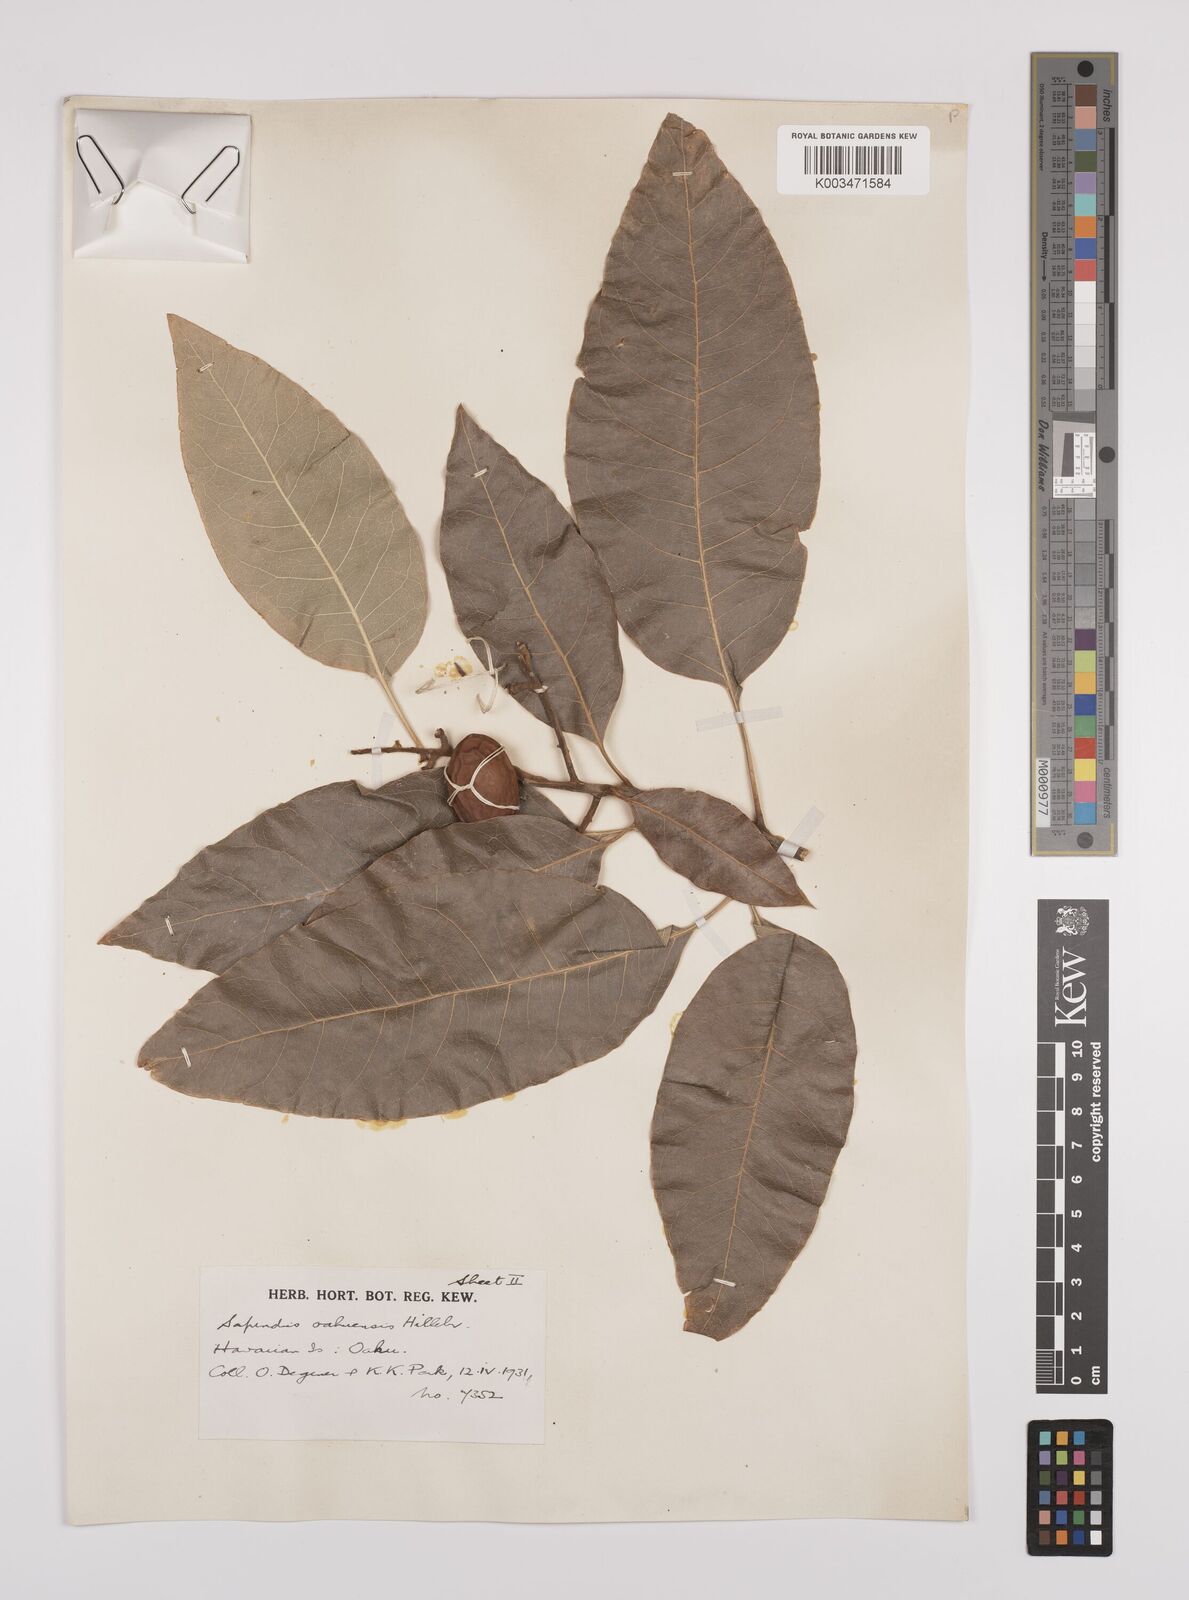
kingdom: Plantae
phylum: Tracheophyta
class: Magnoliopsida
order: Sapindales
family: Sapindaceae
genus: Sapindus
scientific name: Sapindus oahuensis
